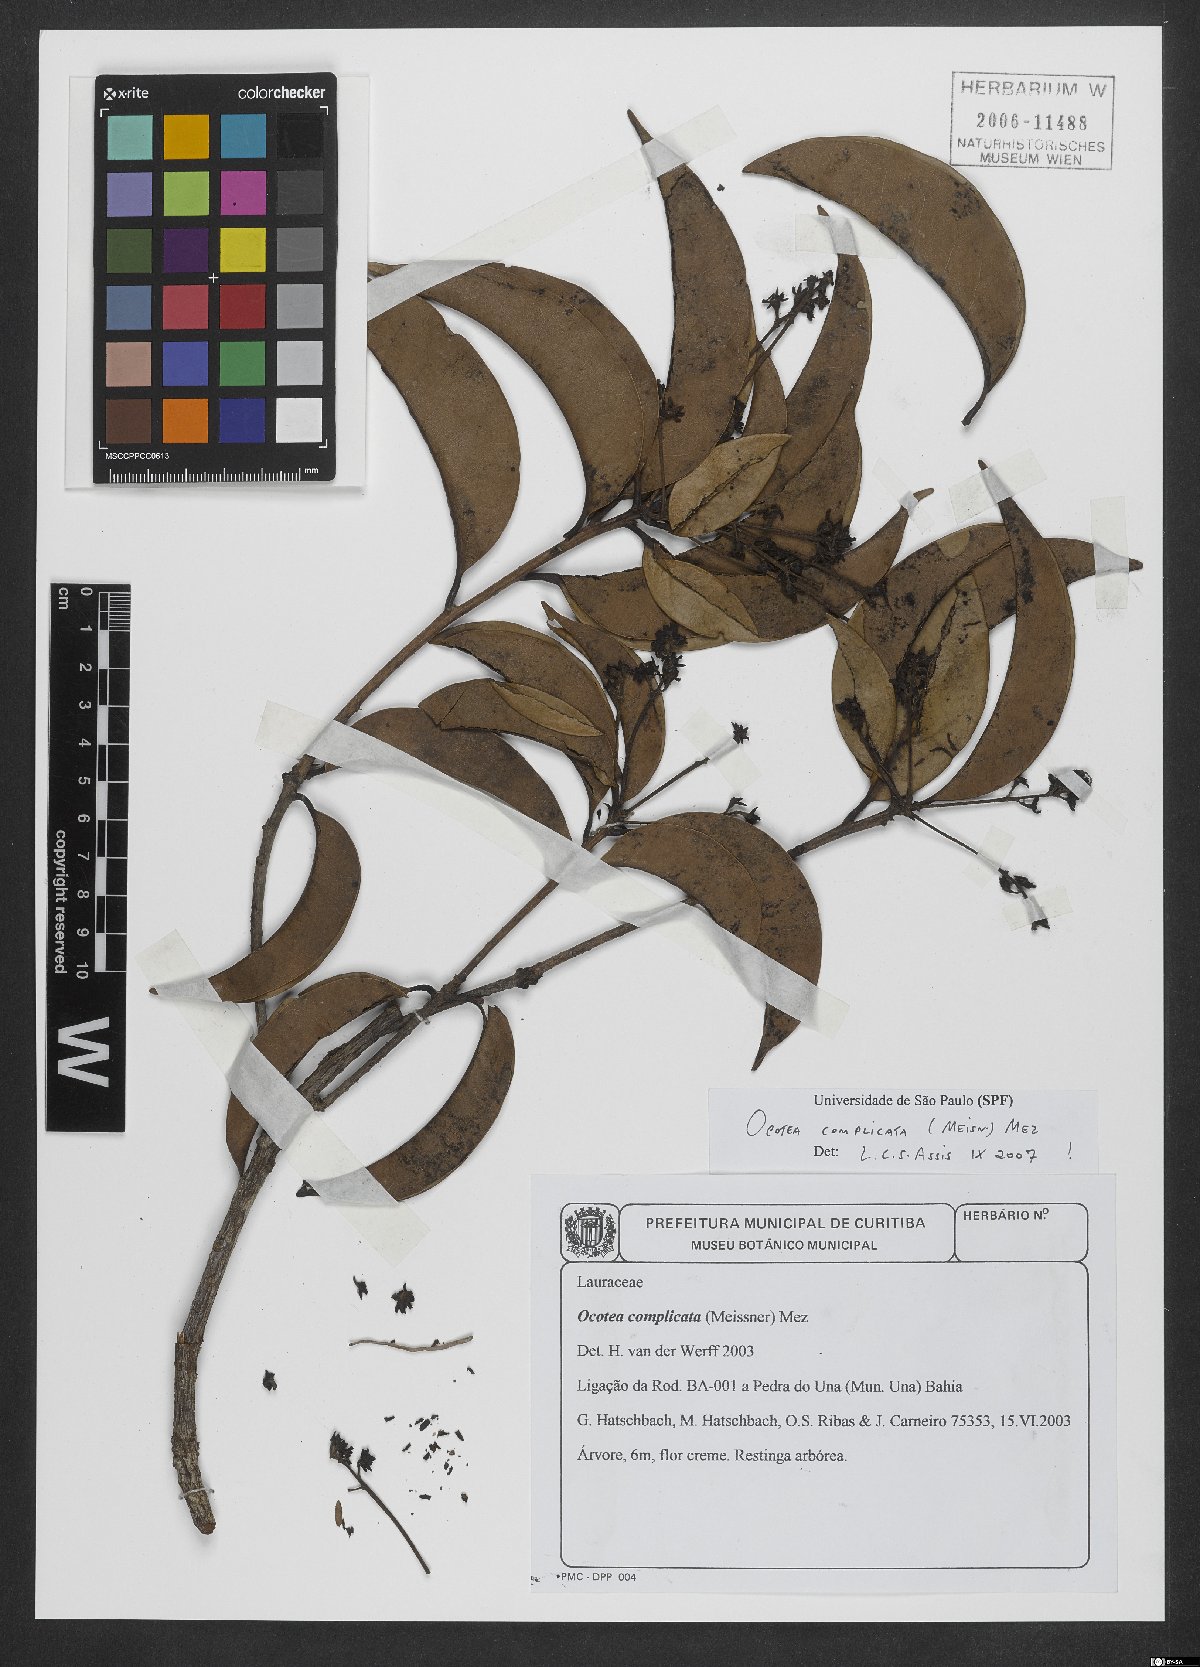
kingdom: Plantae
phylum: Tracheophyta
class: Magnoliopsida
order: Laurales
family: Lauraceae
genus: Mespilodaphne
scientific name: Mespilodaphne complicata
